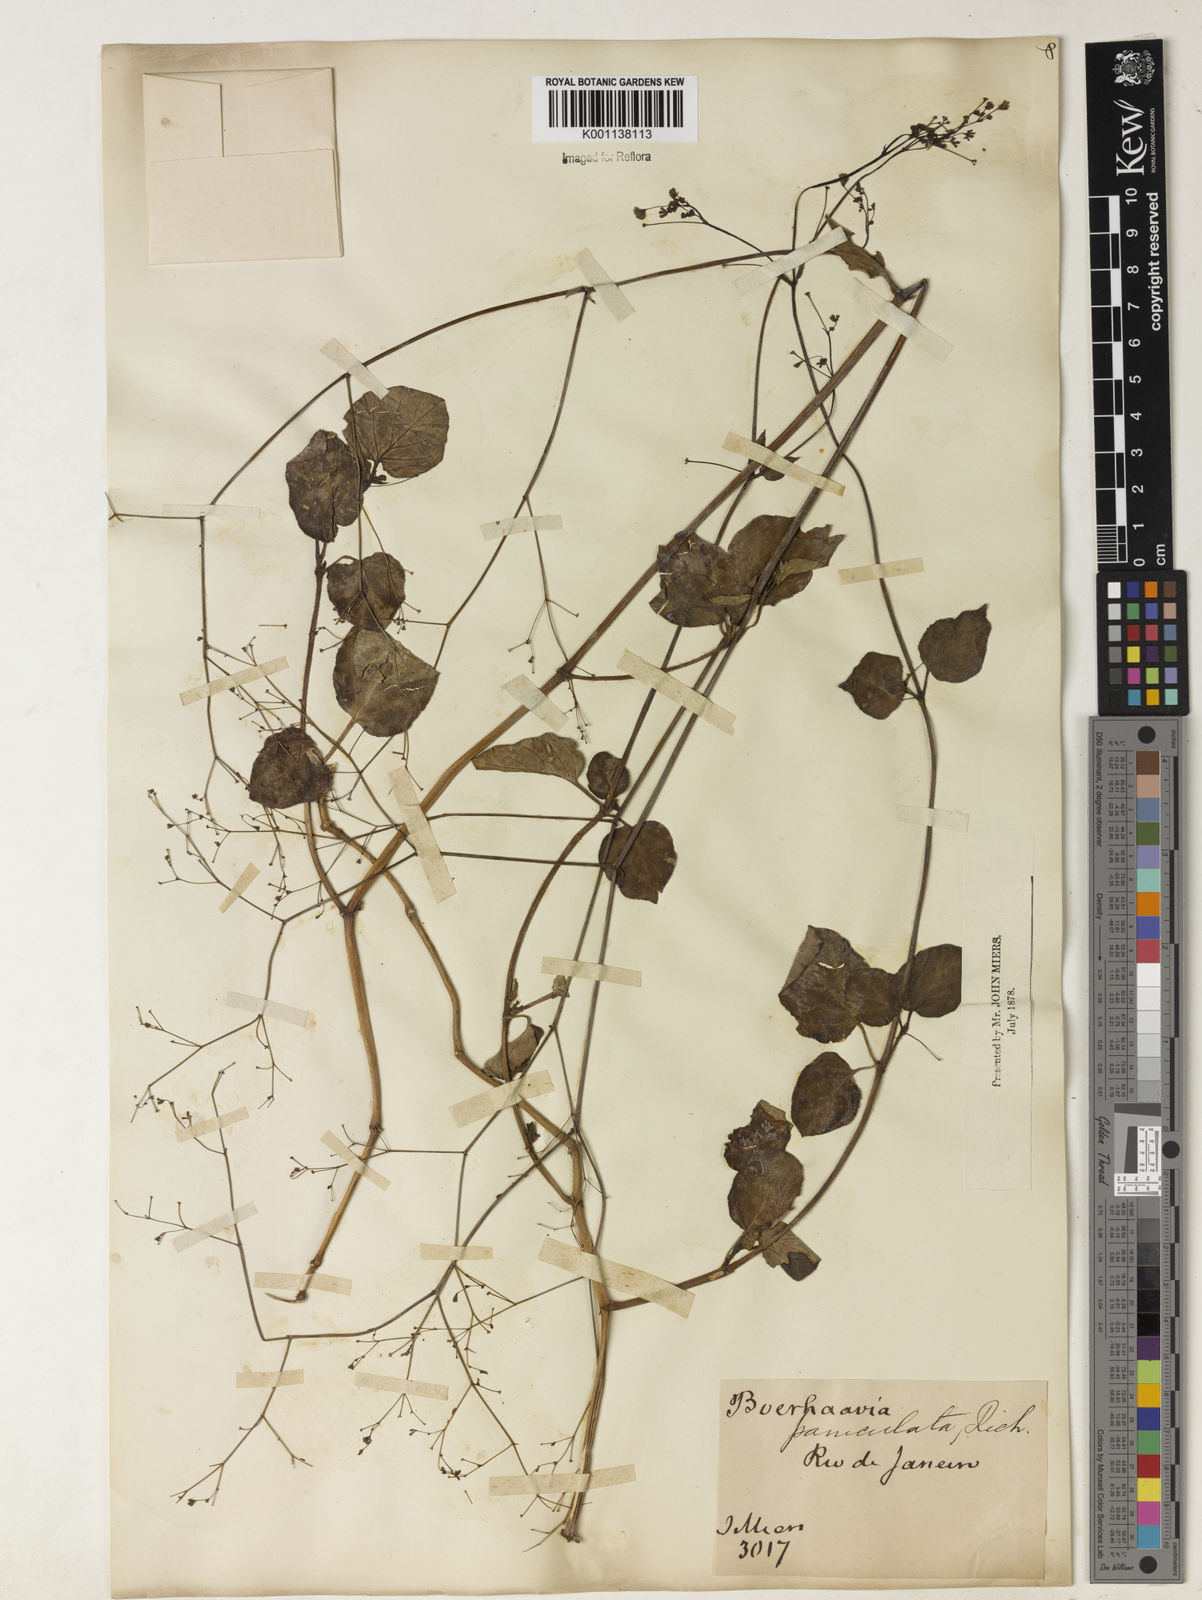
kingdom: Plantae
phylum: Tracheophyta
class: Magnoliopsida
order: Caryophyllales
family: Nyctaginaceae
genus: Boerhavia
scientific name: Boerhavia diffusa
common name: Red spiderling
